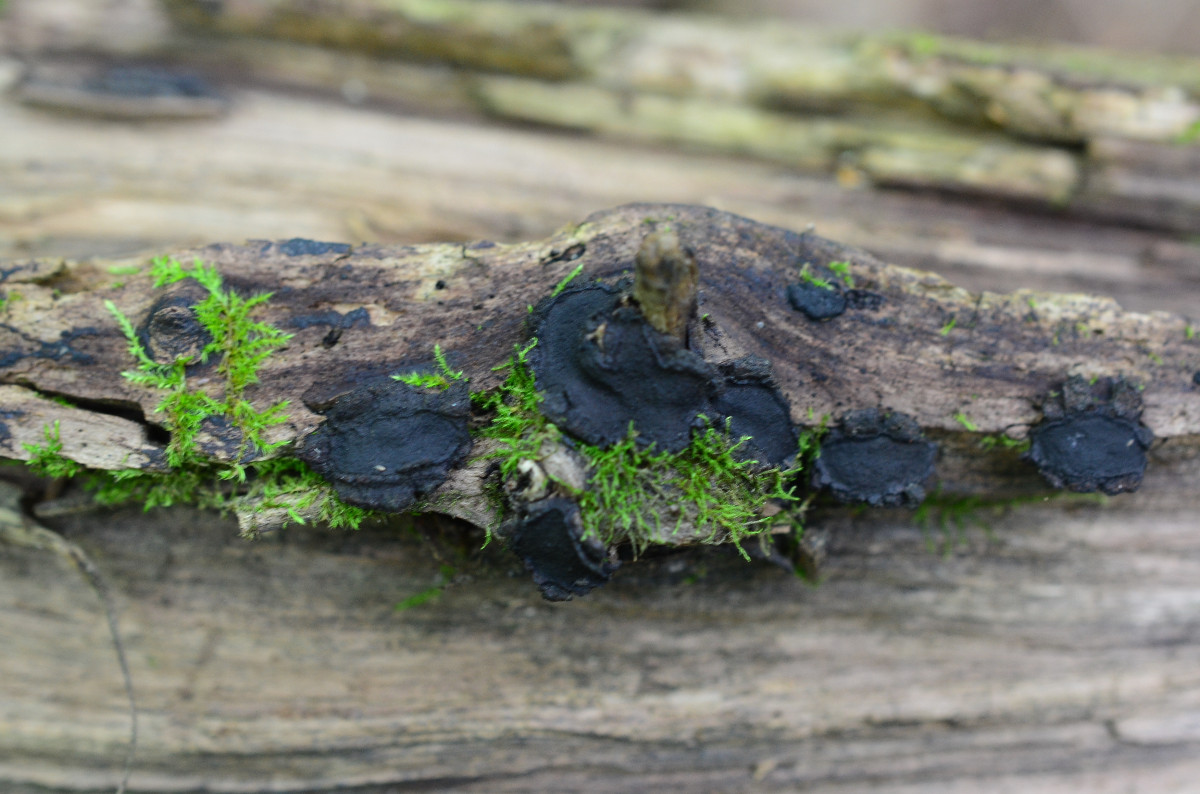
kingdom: Fungi
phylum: Ascomycota
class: Sordariomycetes
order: Xylariales
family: Graphostromataceae
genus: Biscogniauxia
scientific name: Biscogniauxia repanda
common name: krone-kulskive
